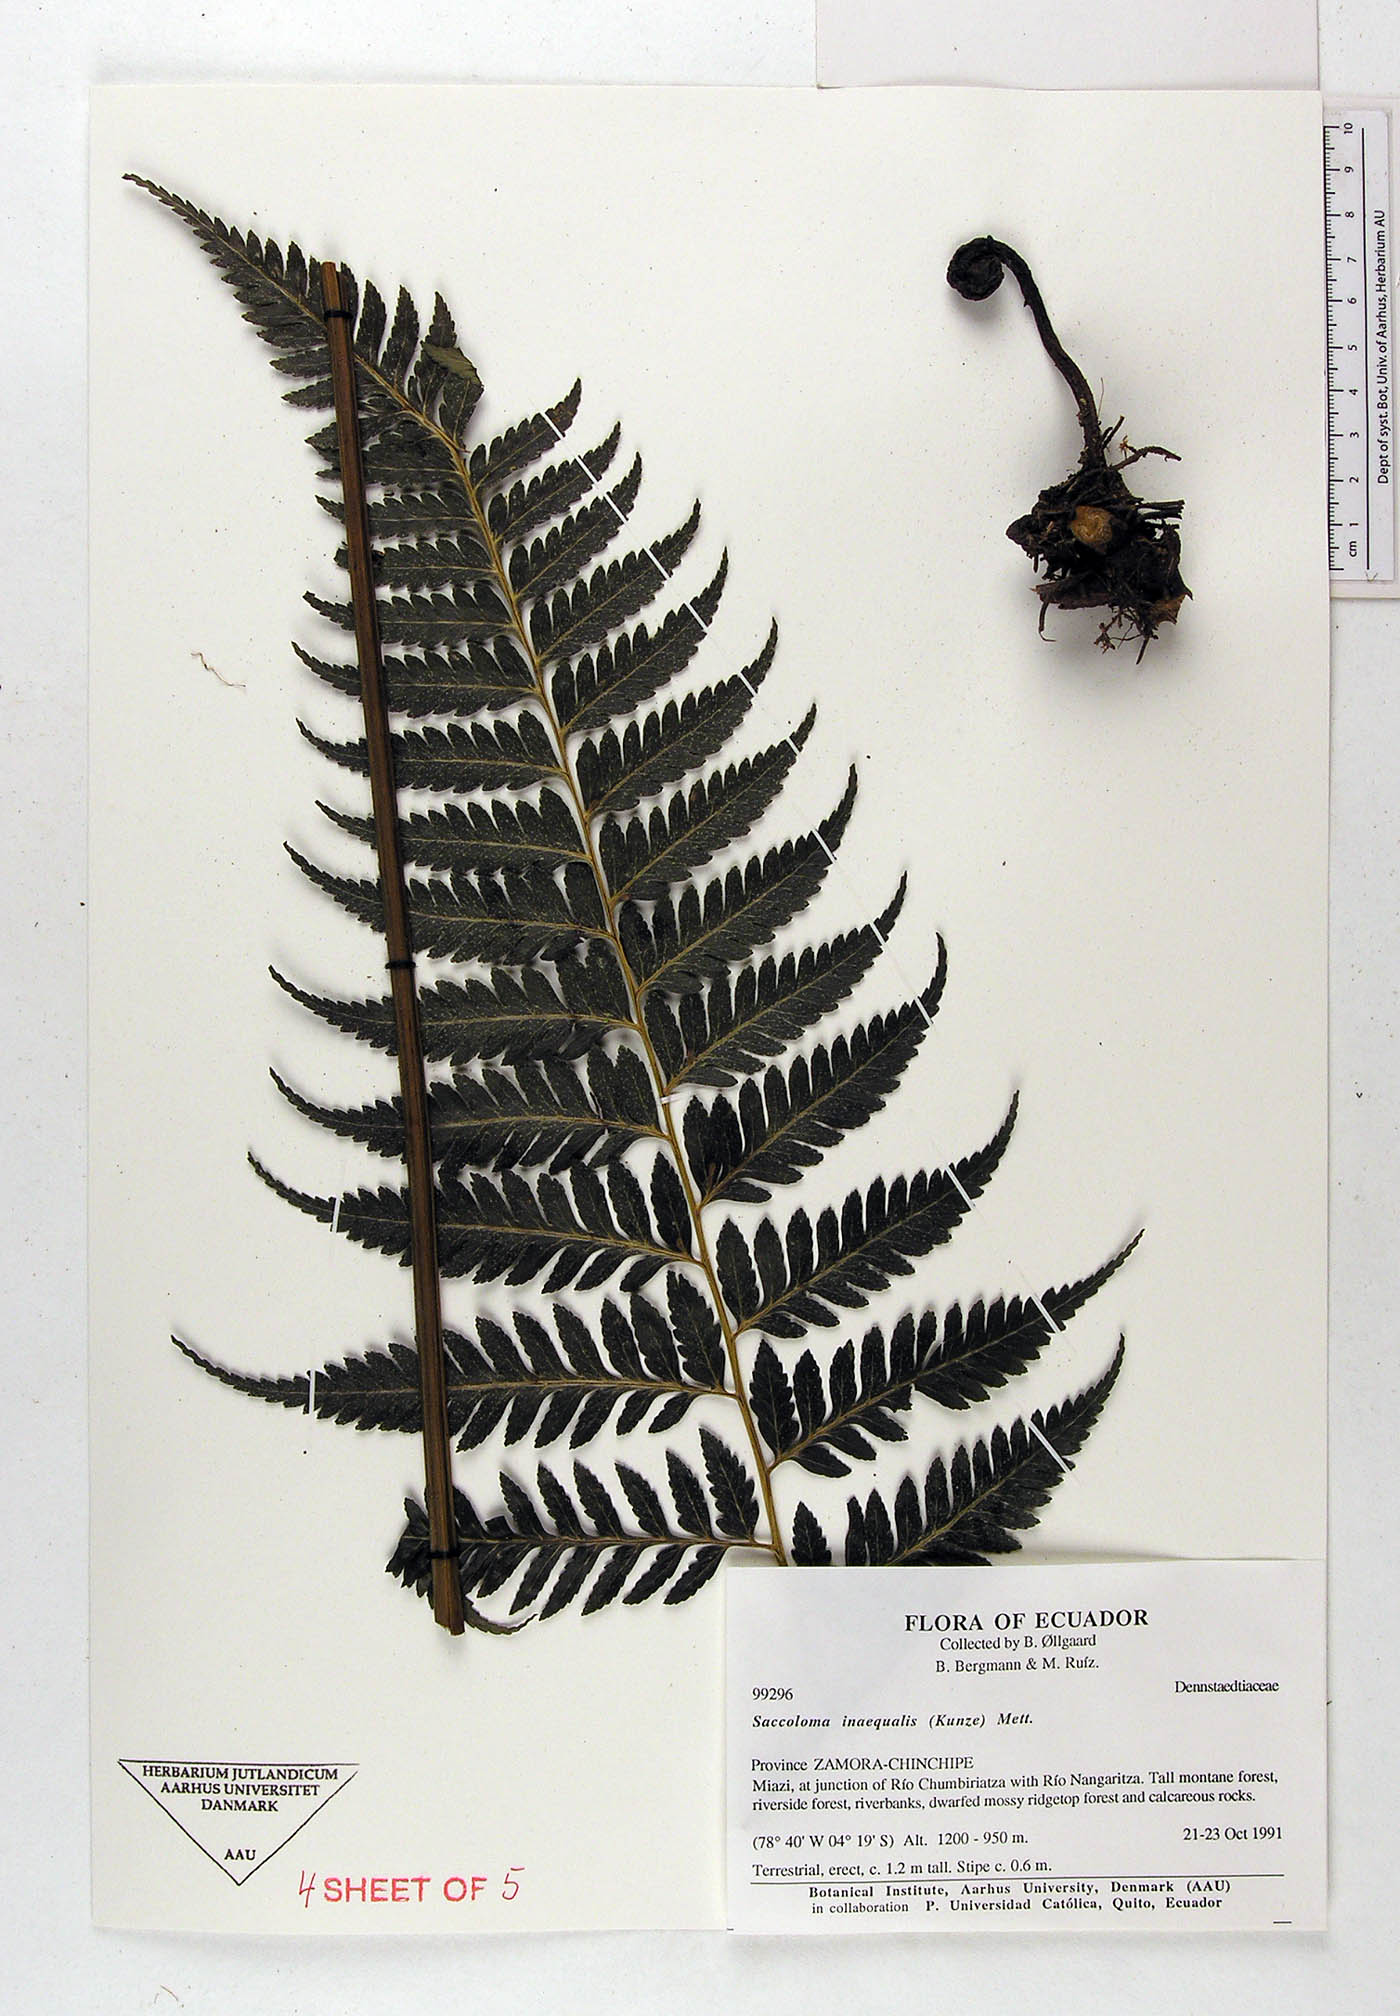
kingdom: Plantae
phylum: Tracheophyta
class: Polypodiopsida
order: Polypodiales
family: Saccolomataceae
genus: Saccoloma
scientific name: Saccoloma inaequale
